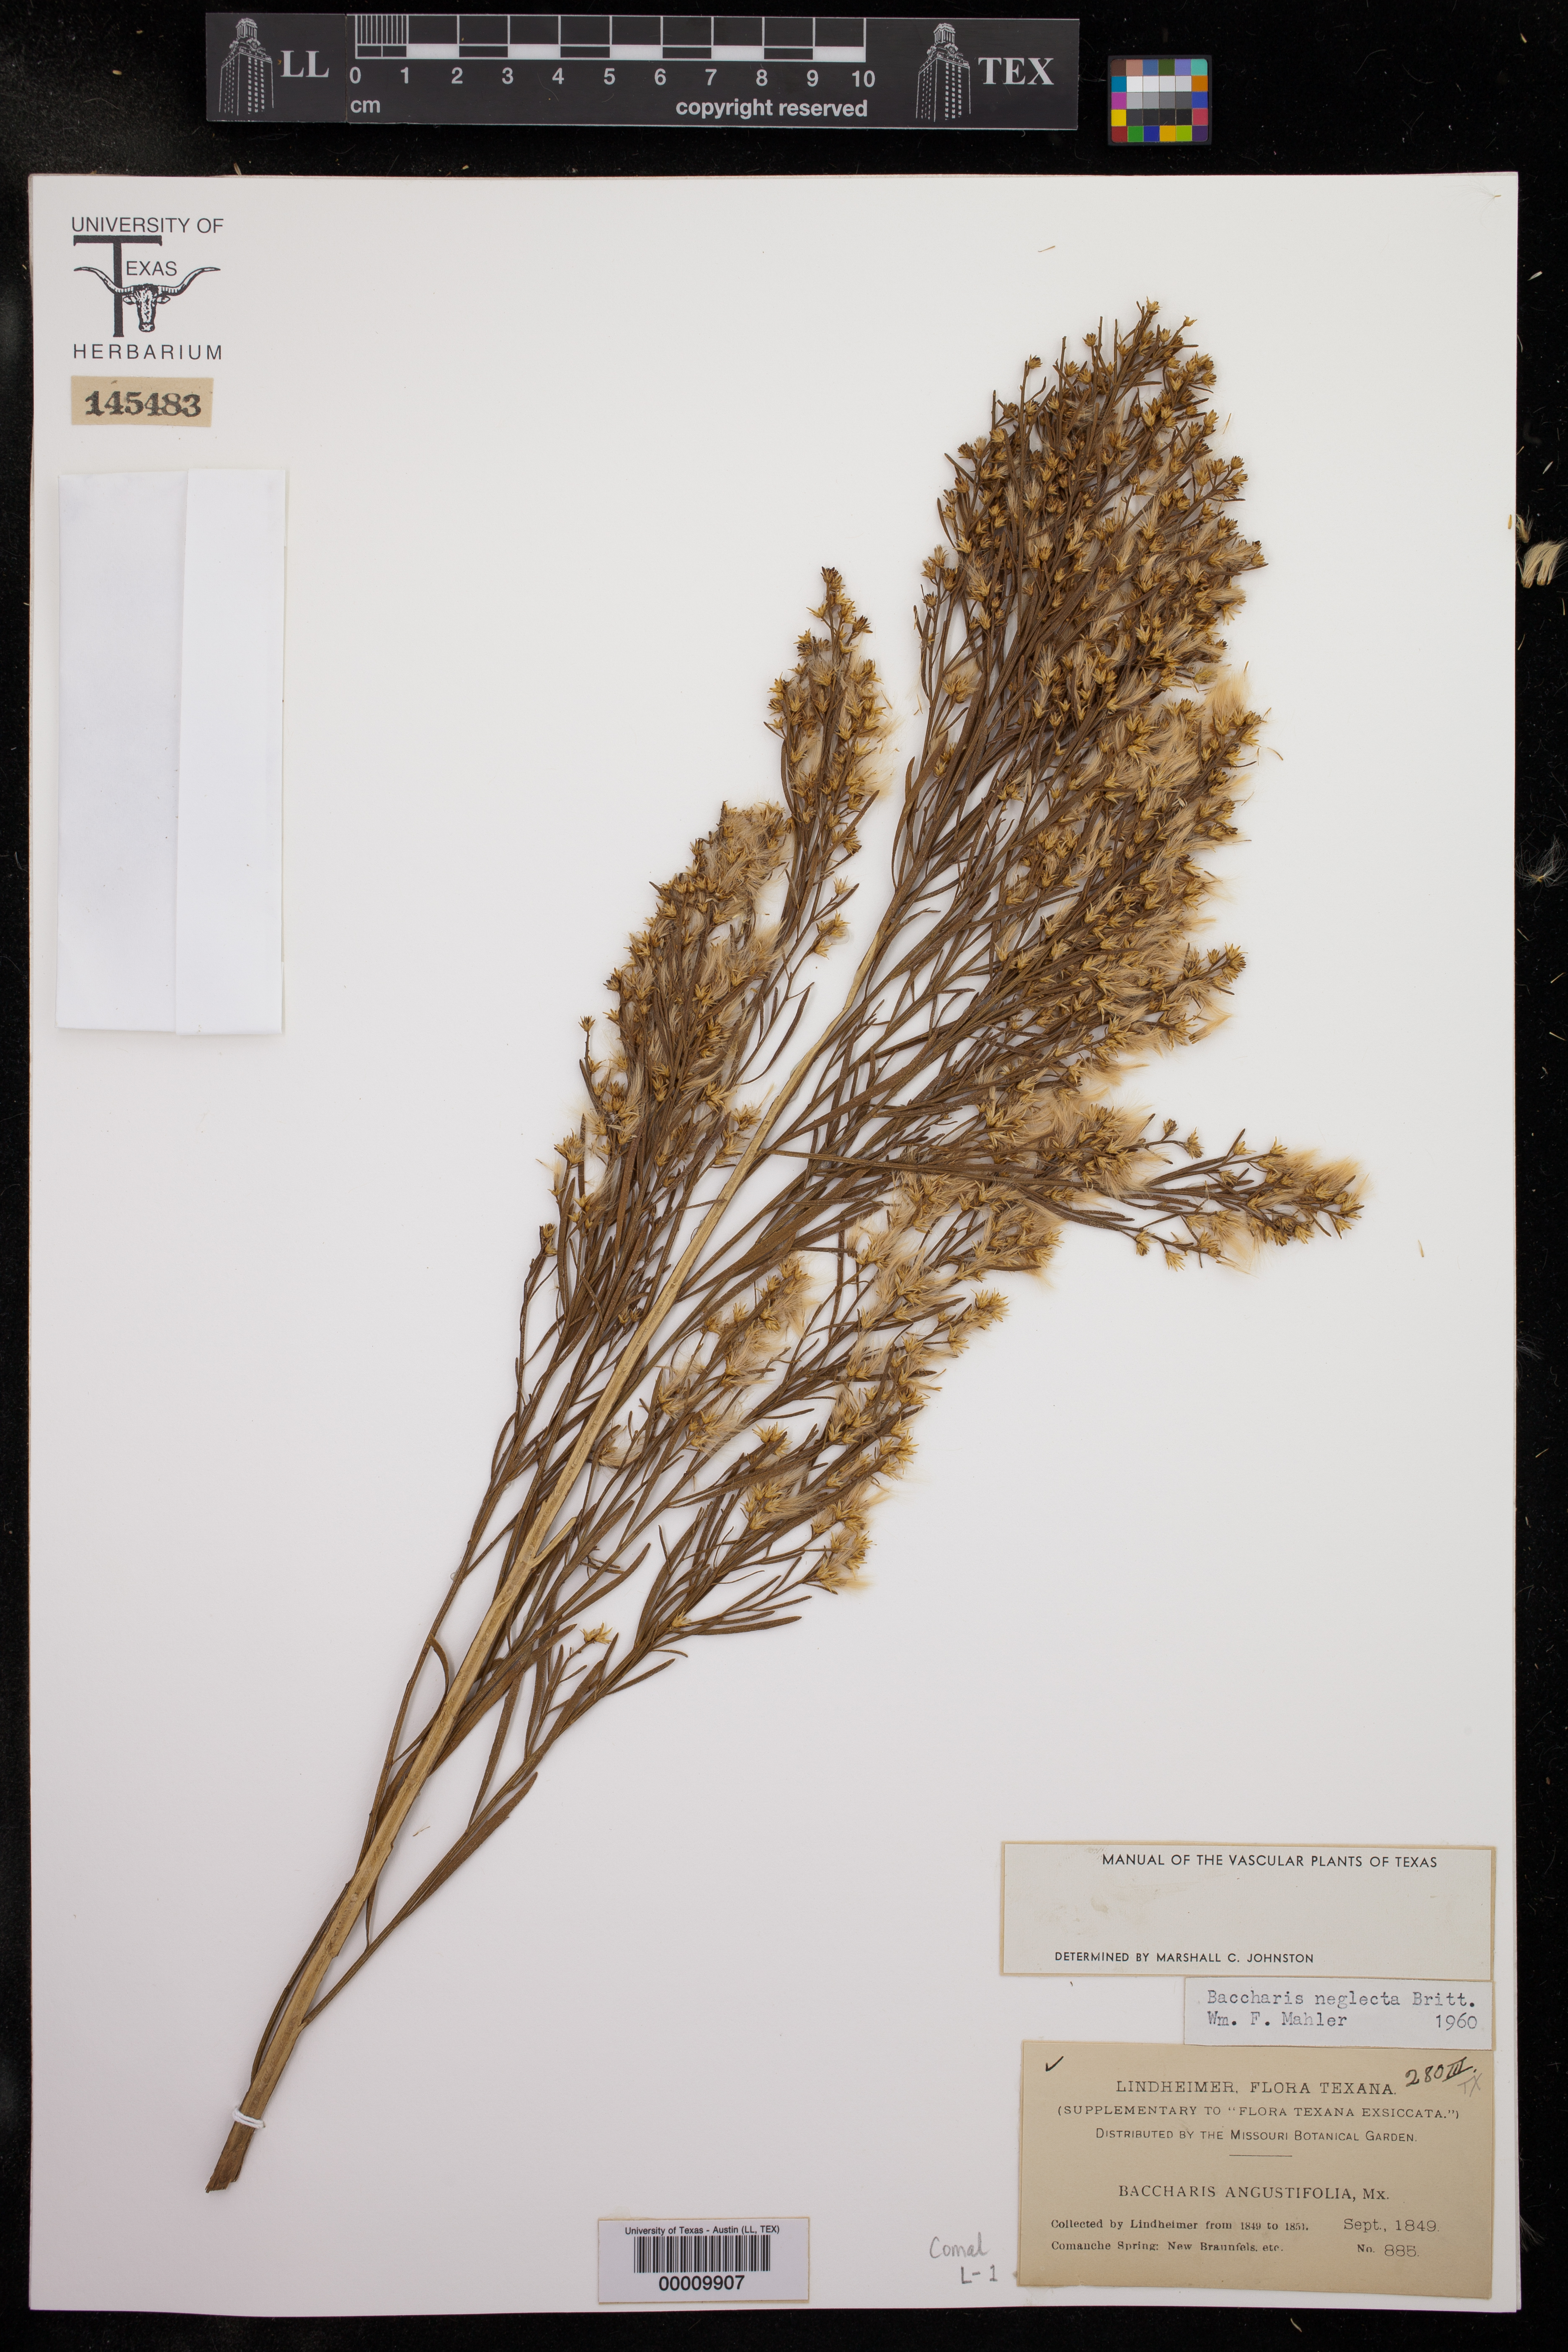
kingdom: Plantae
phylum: Tracheophyta
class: Magnoliopsida
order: Asterales
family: Asteraceae
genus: Baccharis
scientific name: Baccharis neglecta
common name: Roosevelt-weed
